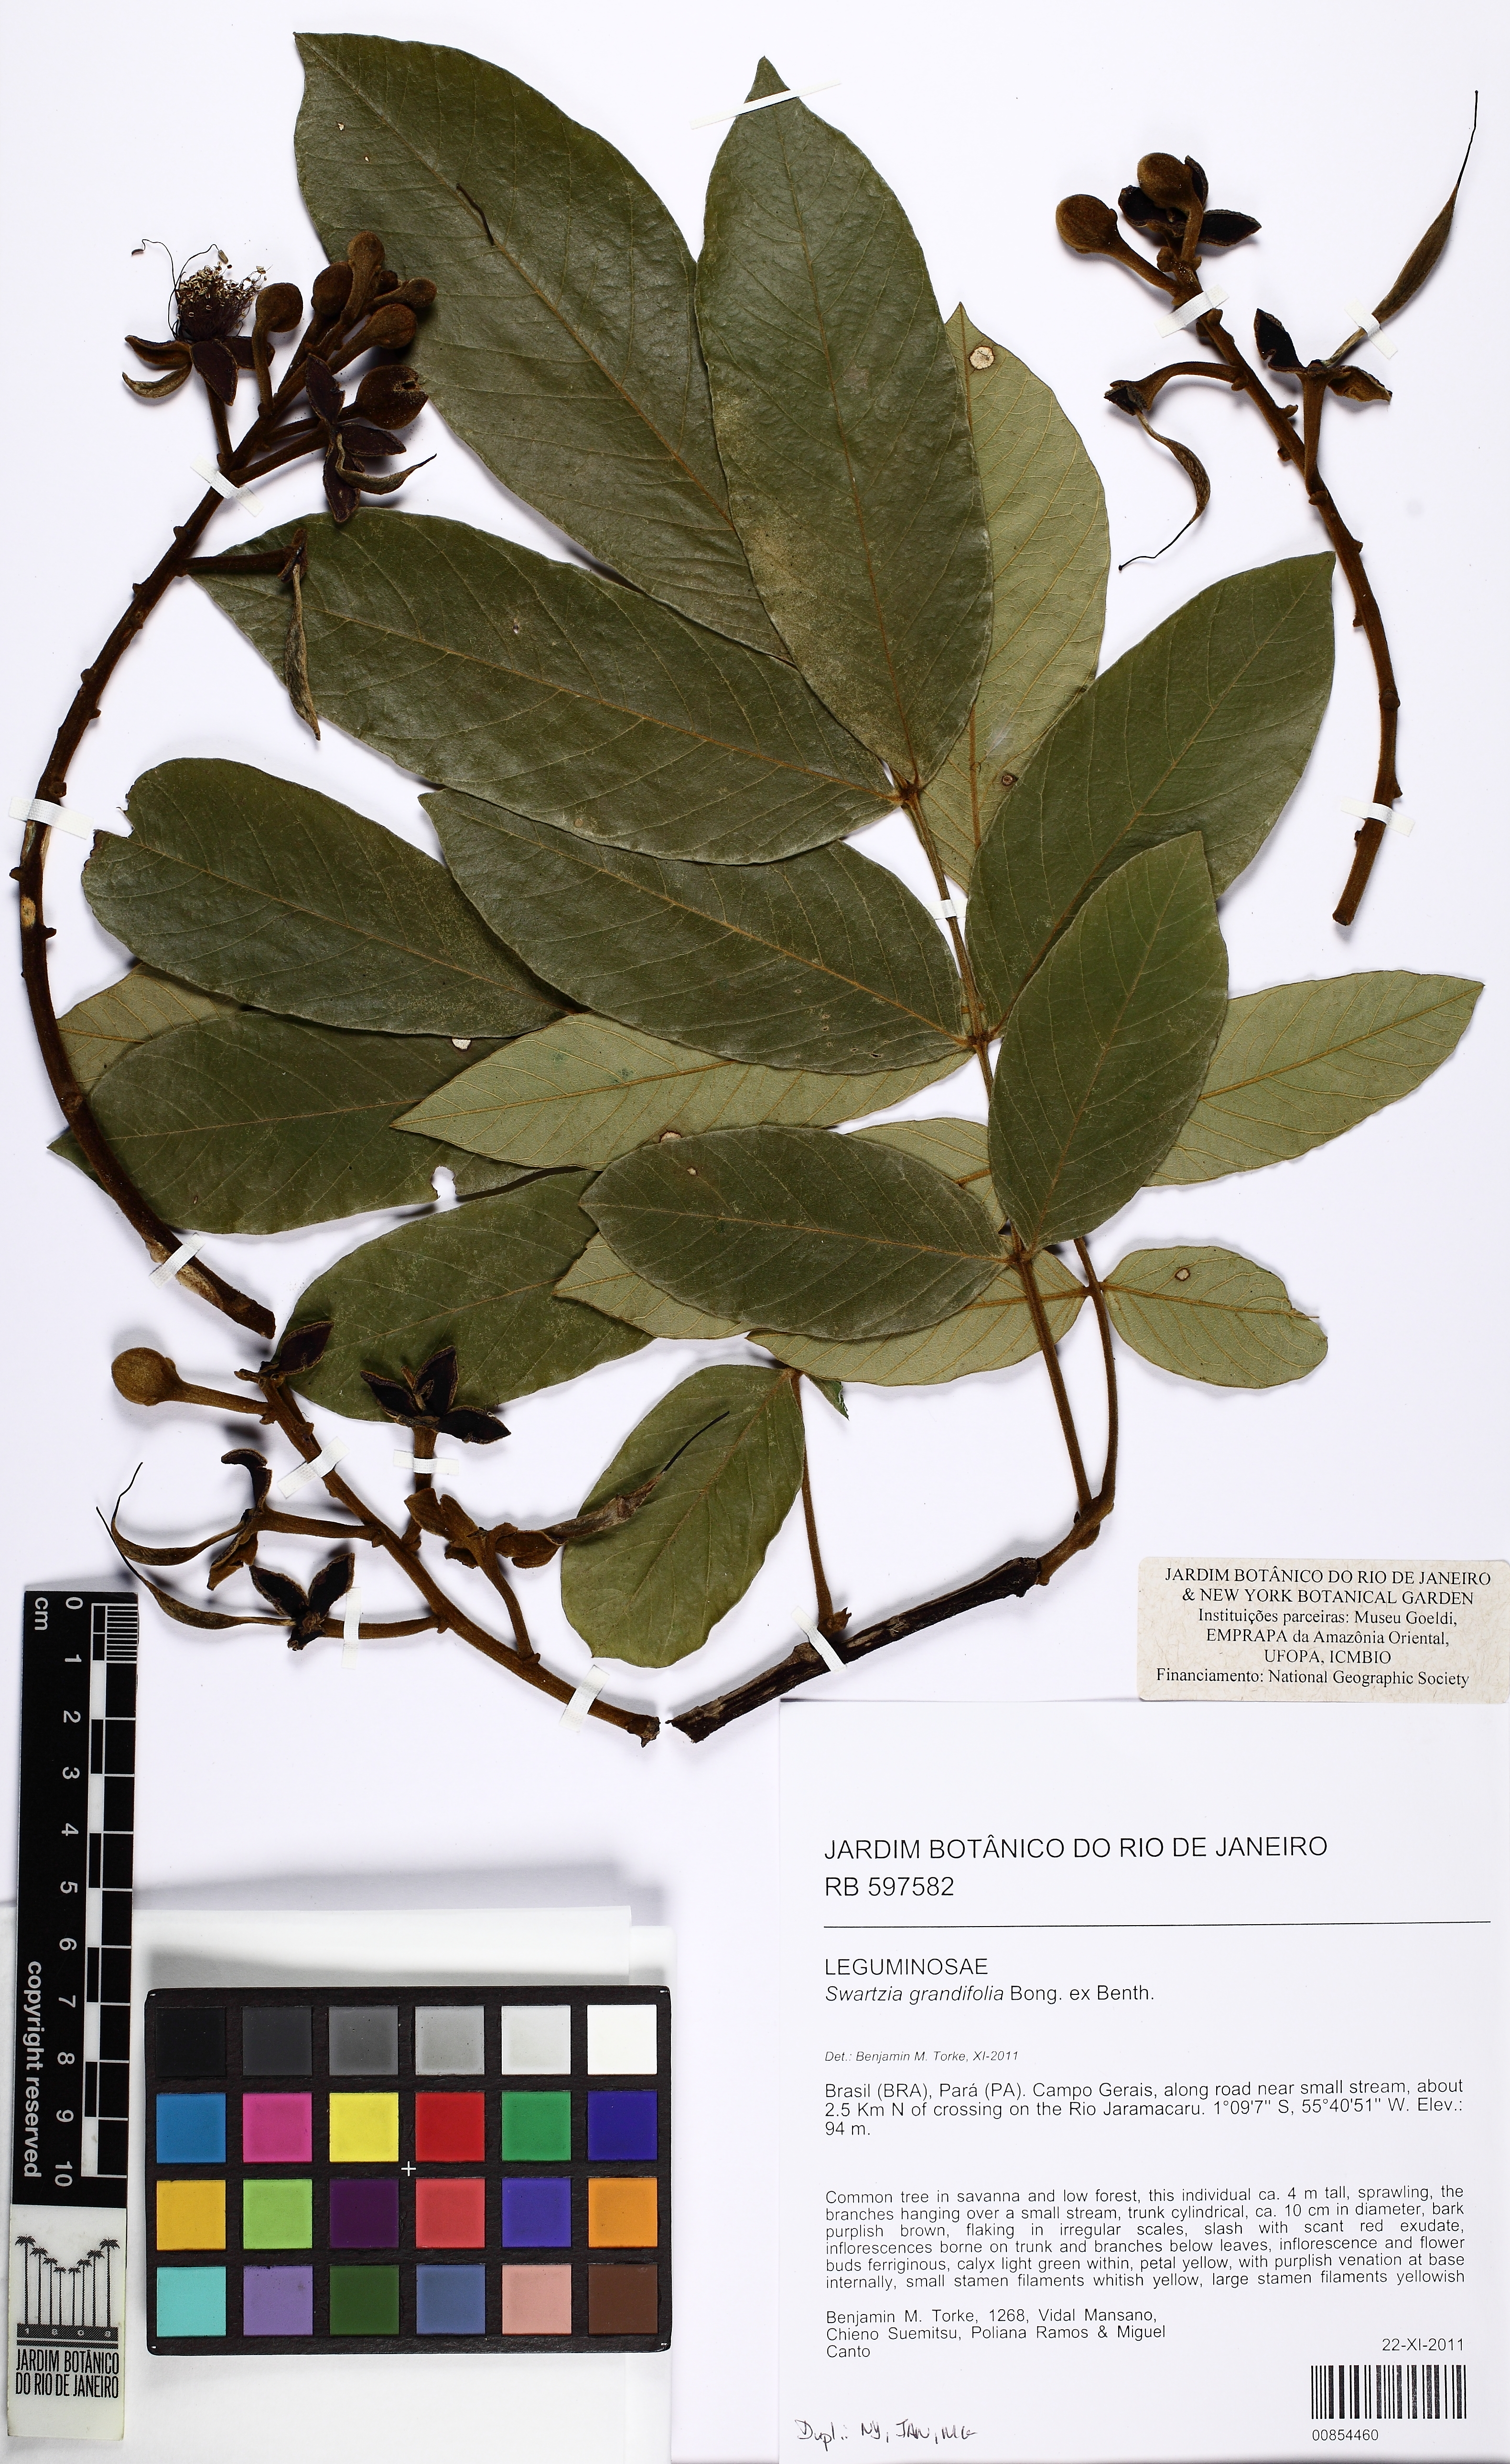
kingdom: Plantae
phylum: Tracheophyta
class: Magnoliopsida
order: Fabales
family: Fabaceae
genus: Swartzia
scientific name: Swartzia grandifolia
